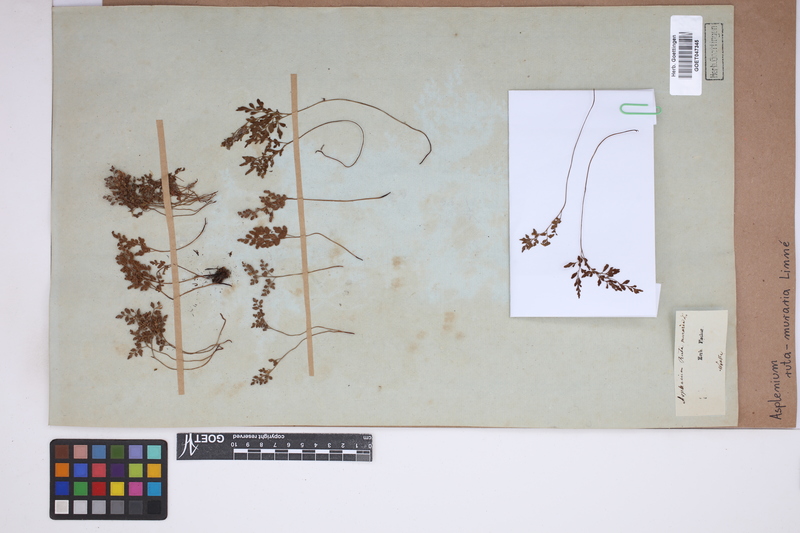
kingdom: Plantae
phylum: Tracheophyta
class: Polypodiopsida
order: Polypodiales
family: Aspleniaceae
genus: Asplenium
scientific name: Asplenium ruta-muraria
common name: Wall-rue
